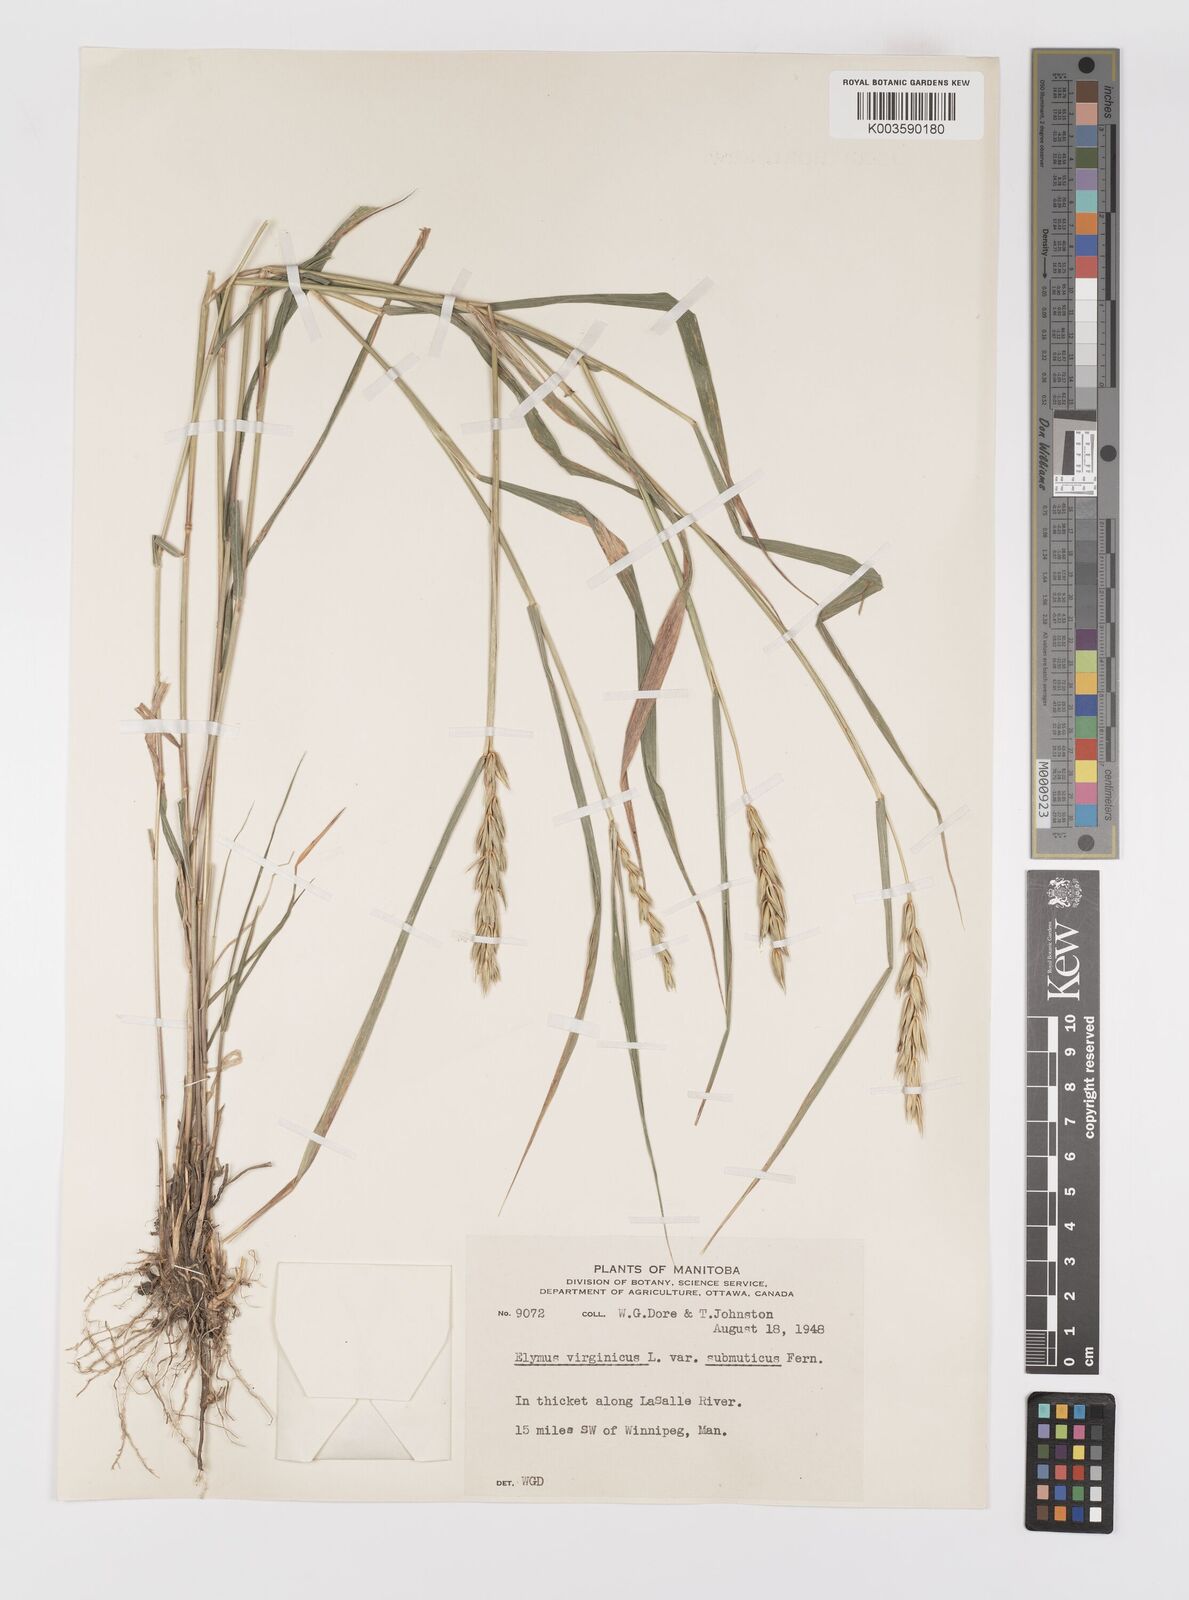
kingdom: Plantae
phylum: Tracheophyta
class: Liliopsida
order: Poales
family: Poaceae
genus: Elymus
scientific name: Elymus curvatus
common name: Awnless wild rye
